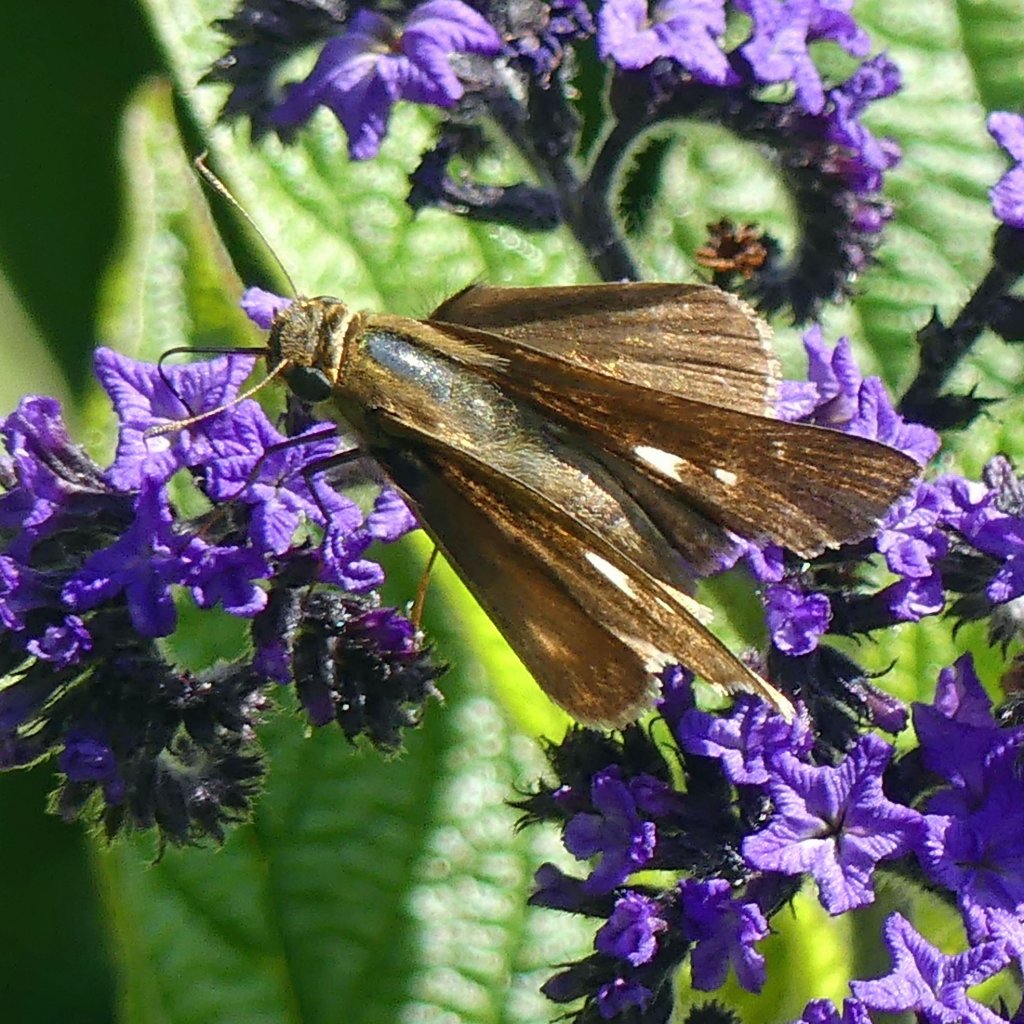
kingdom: Animalia
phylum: Arthropoda
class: Insecta
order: Lepidoptera
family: Hesperiidae
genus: Panoquina
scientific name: Panoquina ocola
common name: Ocola Skipper
